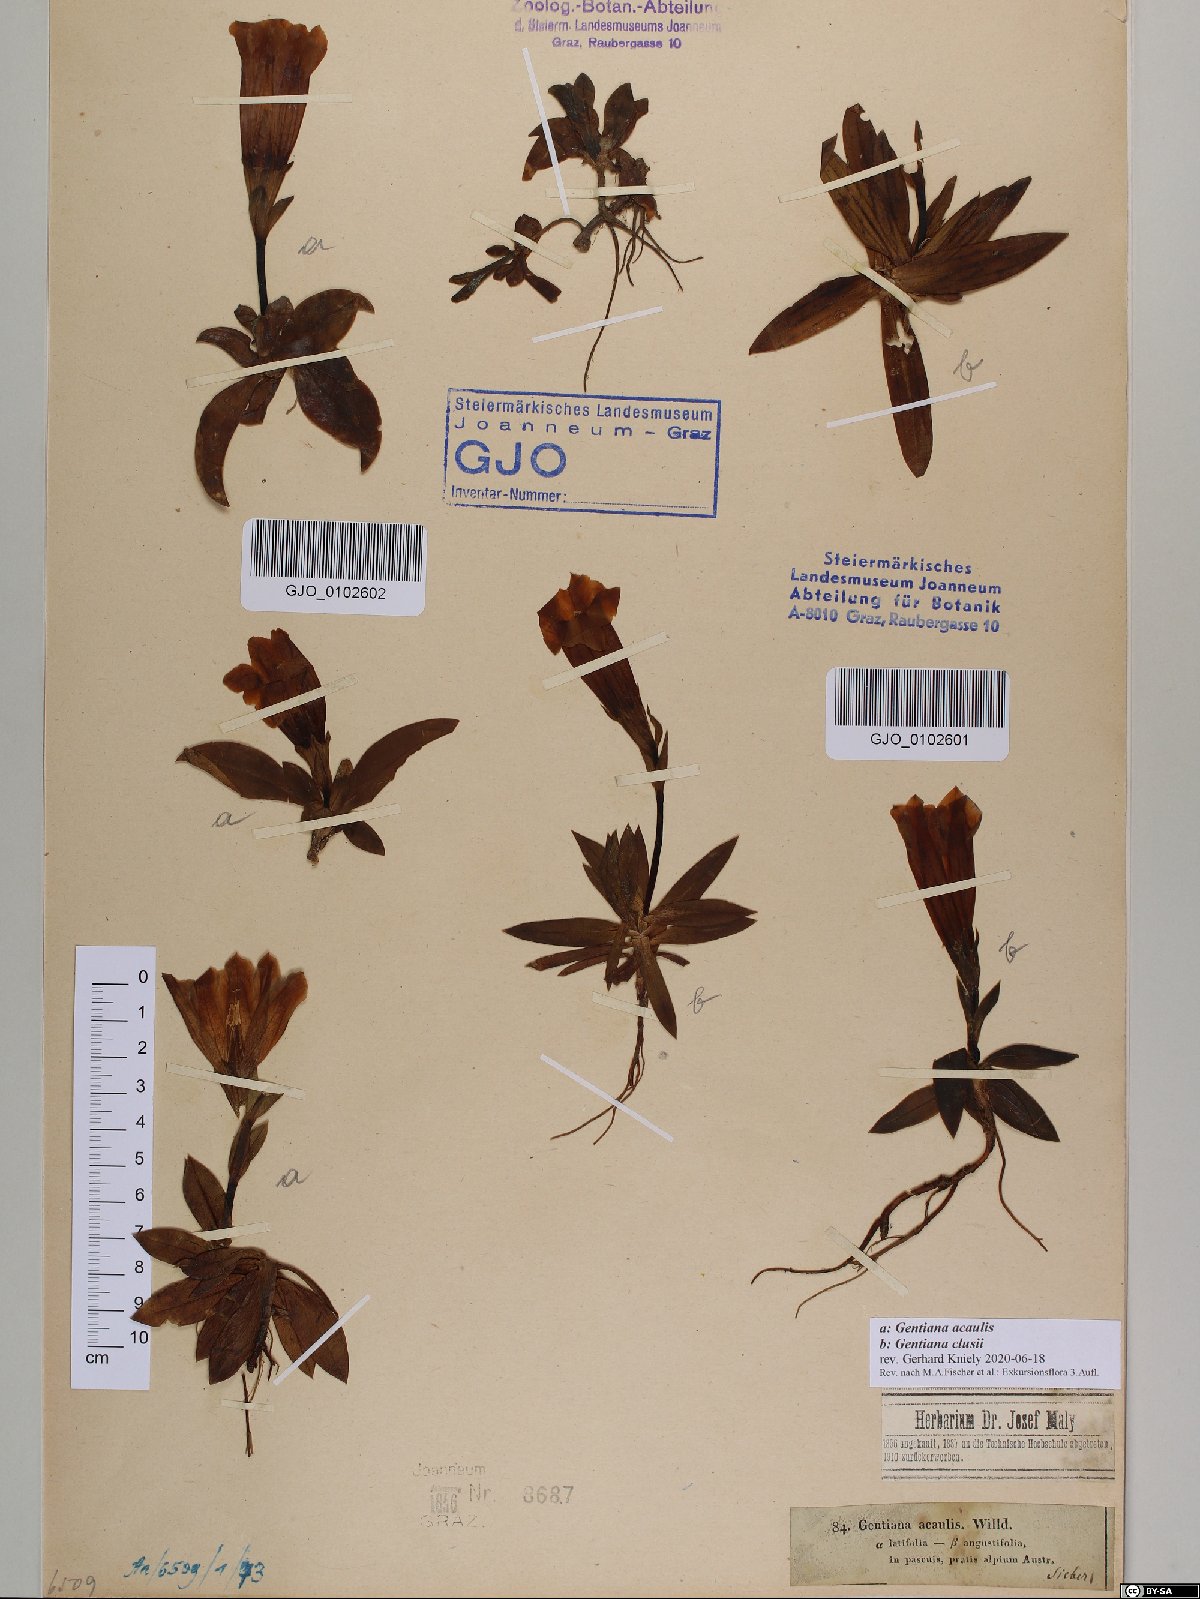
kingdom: Plantae
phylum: Tracheophyta
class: Magnoliopsida
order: Gentianales
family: Gentianaceae
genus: Gentiana
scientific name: Gentiana clusii
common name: Trumpet gentian
